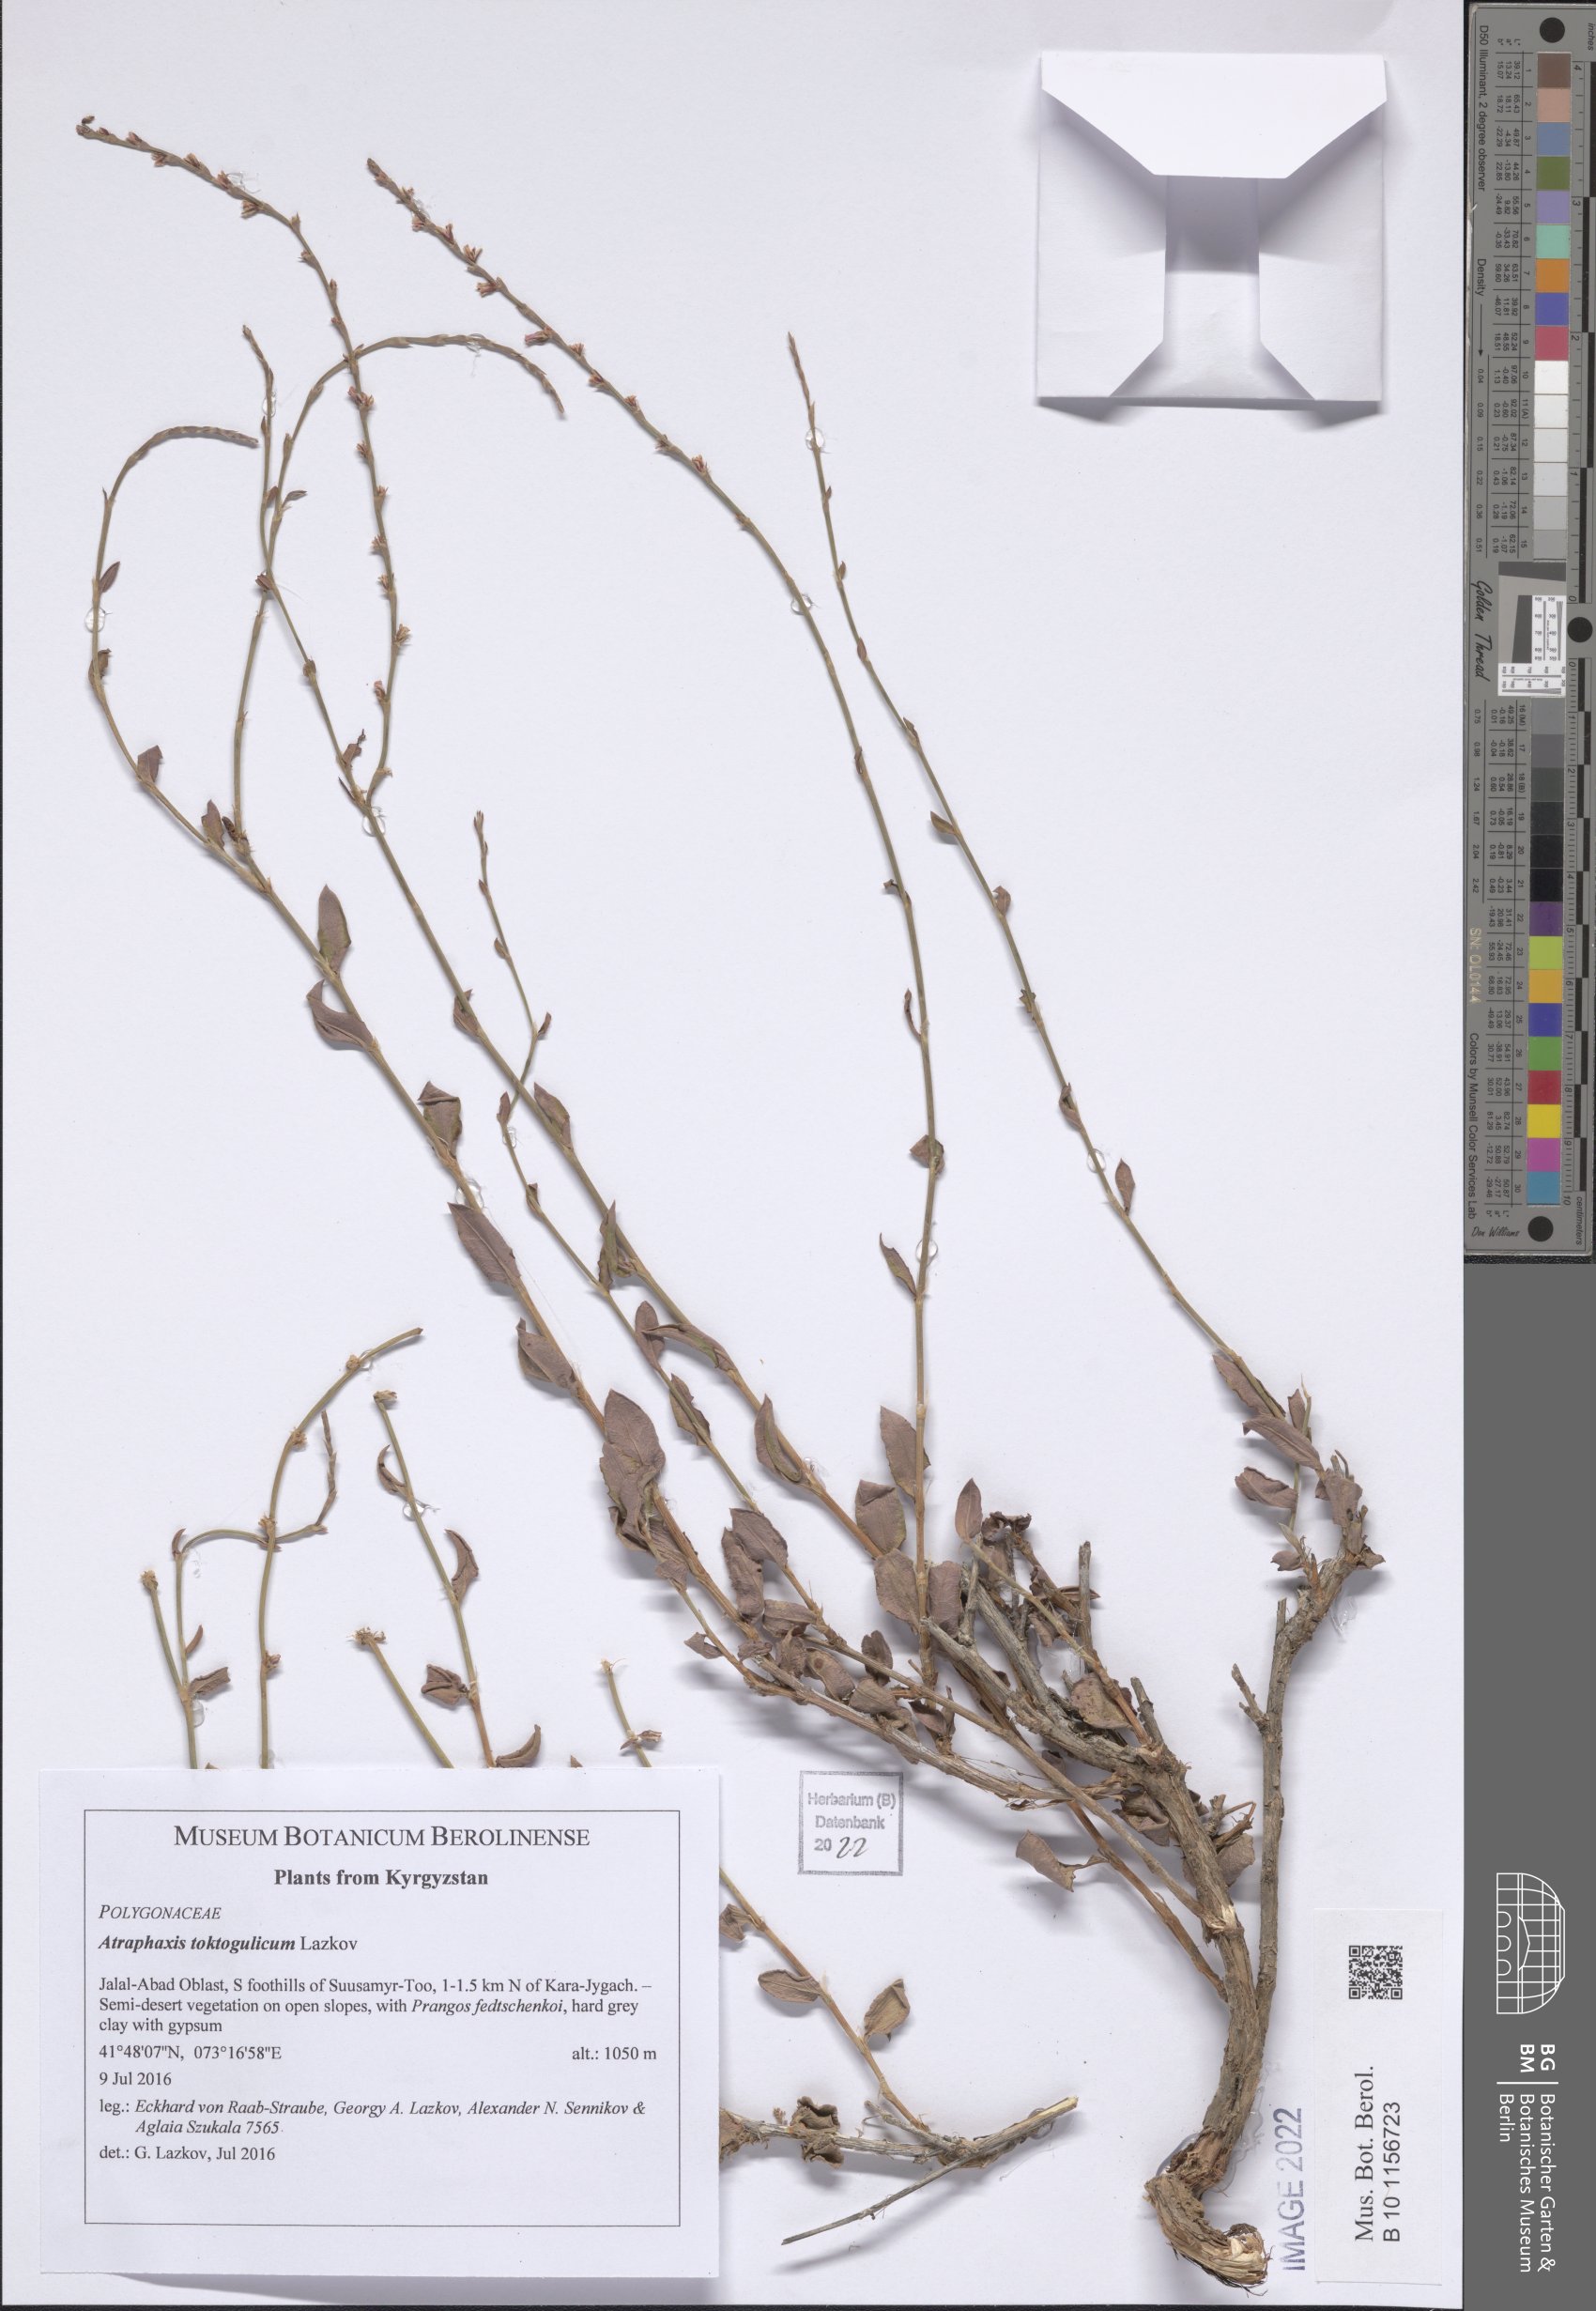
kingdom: Plantae
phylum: Tracheophyta
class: Magnoliopsida
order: Caryophyllales
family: Polygonaceae
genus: Atraphaxis
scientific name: Atraphaxis toktogulica
